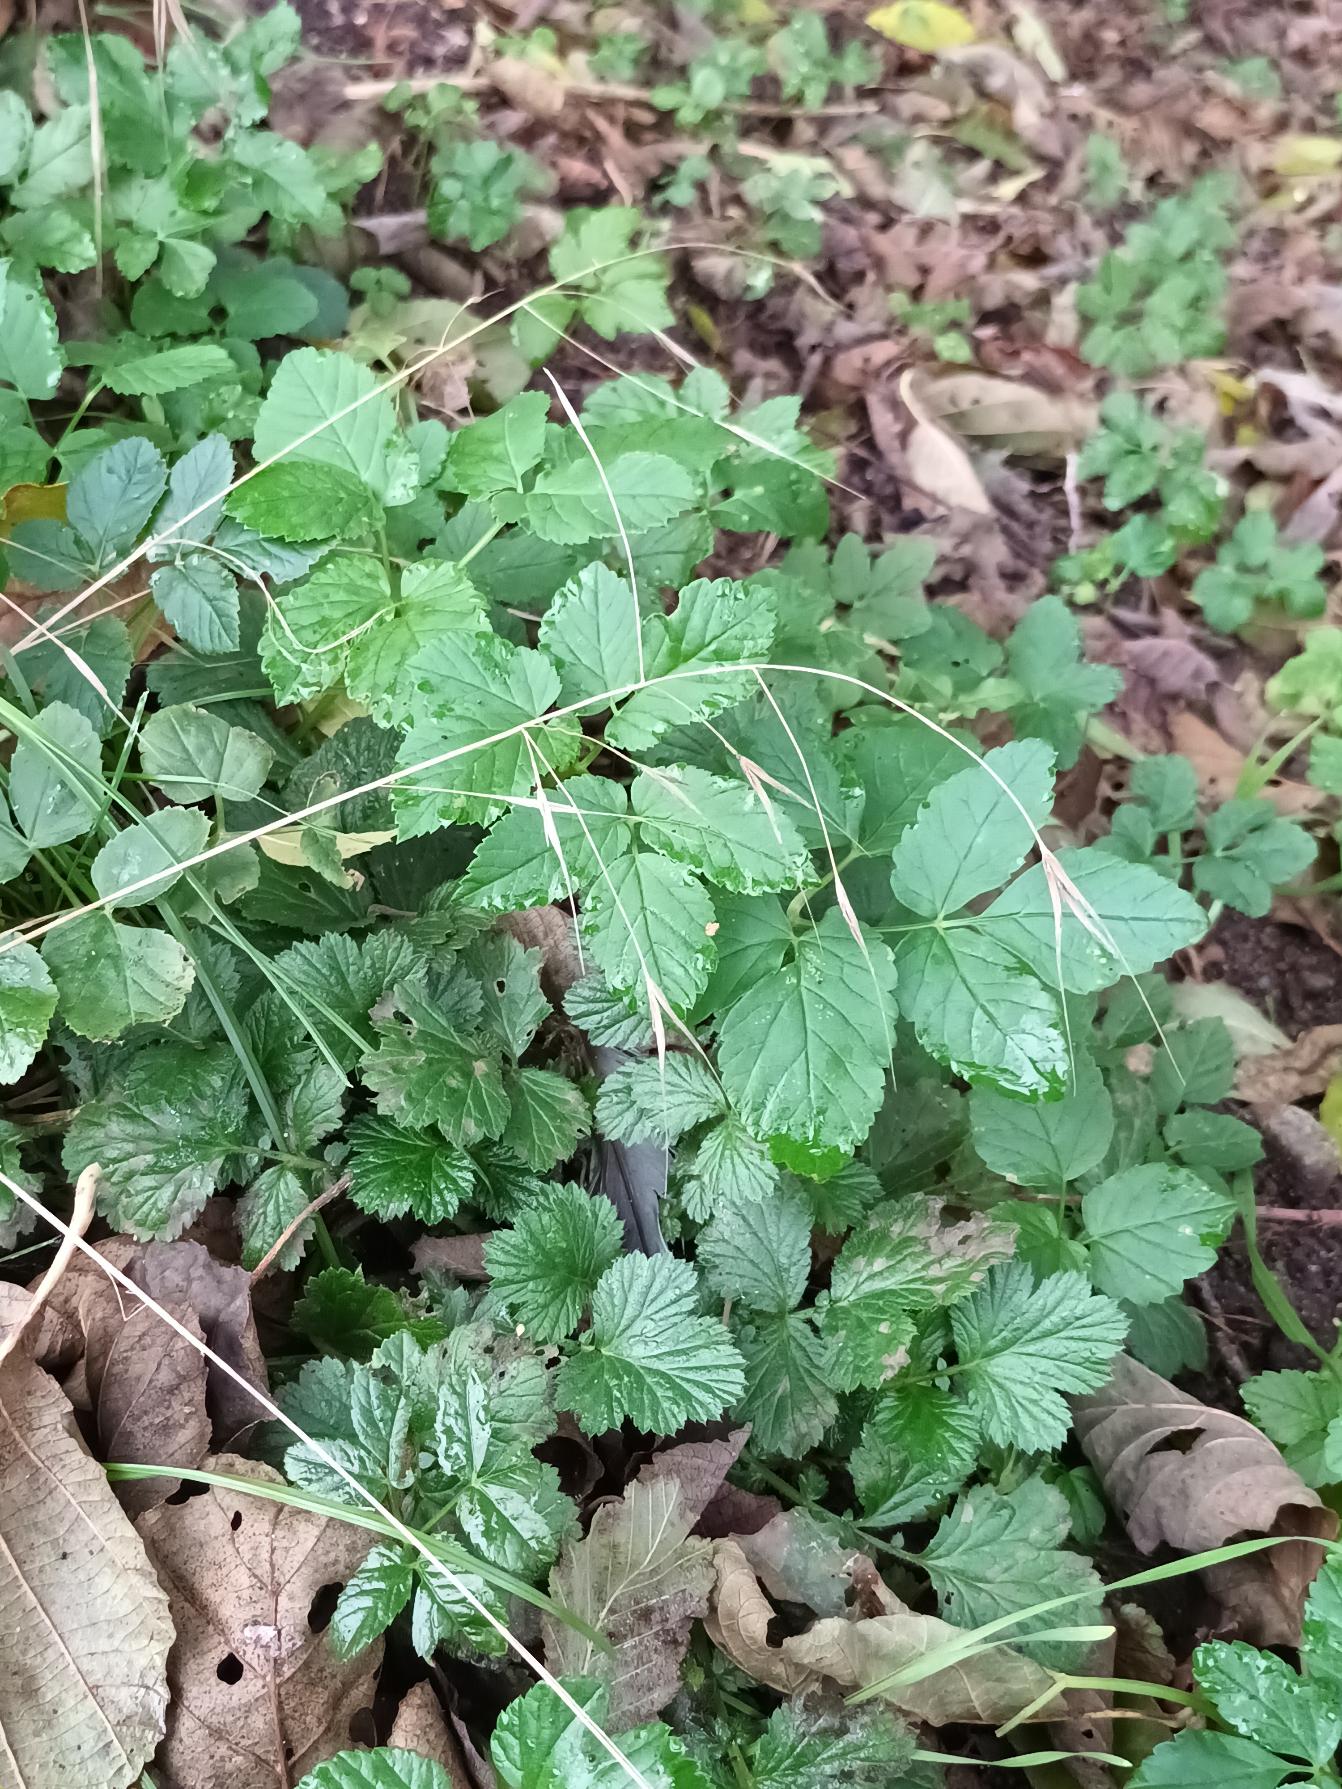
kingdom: Plantae
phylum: Tracheophyta
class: Liliopsida
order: Poales
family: Poaceae
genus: Bromus
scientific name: Bromus sterilis
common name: Gold hejre
